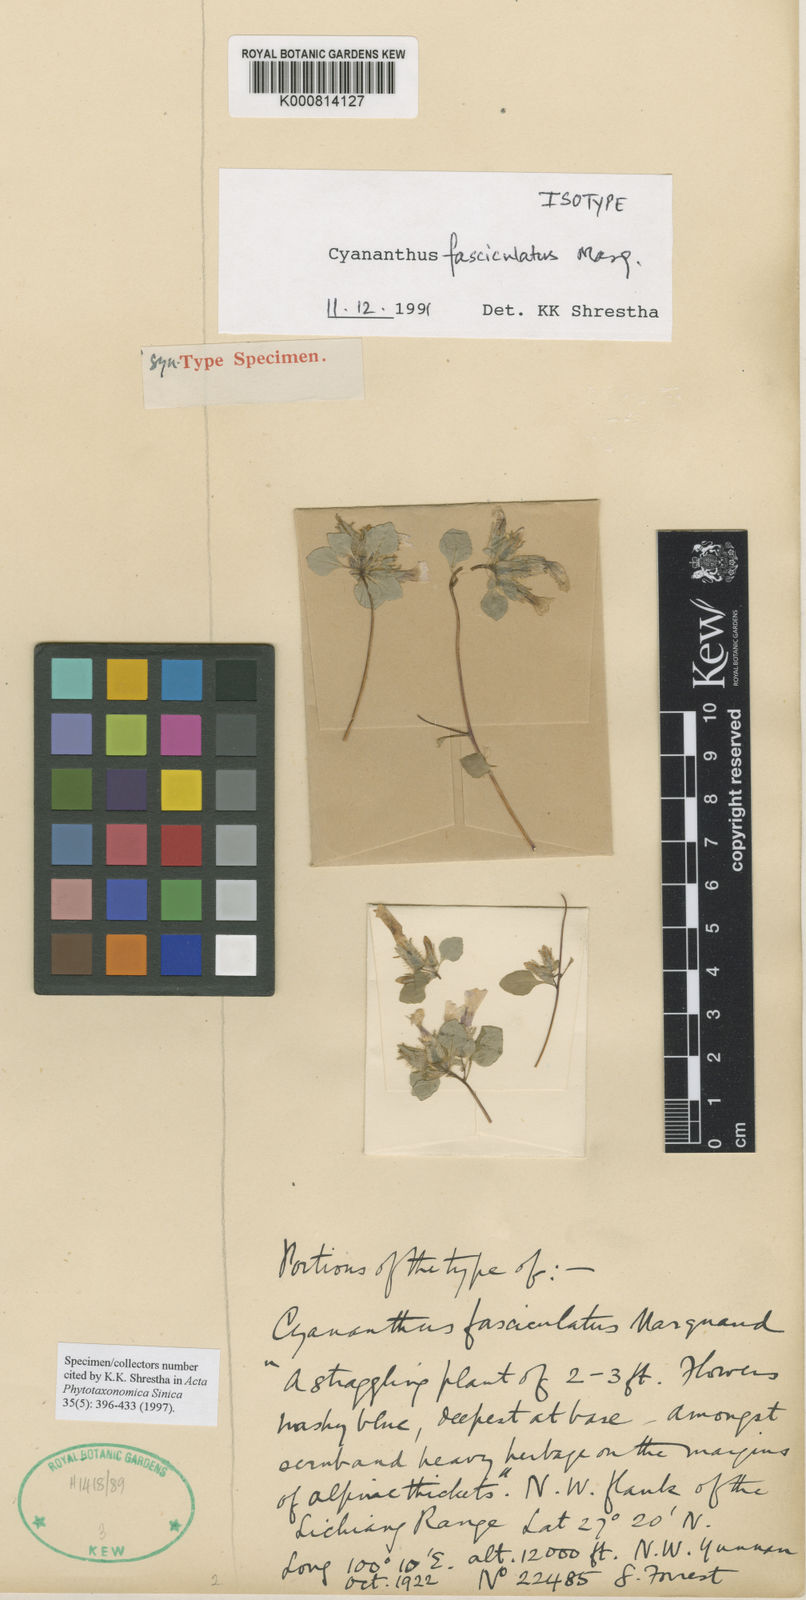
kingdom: Plantae
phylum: Tracheophyta
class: Magnoliopsida
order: Asterales
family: Campanulaceae
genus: Cyananthus
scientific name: Cyananthus fasciculatus
